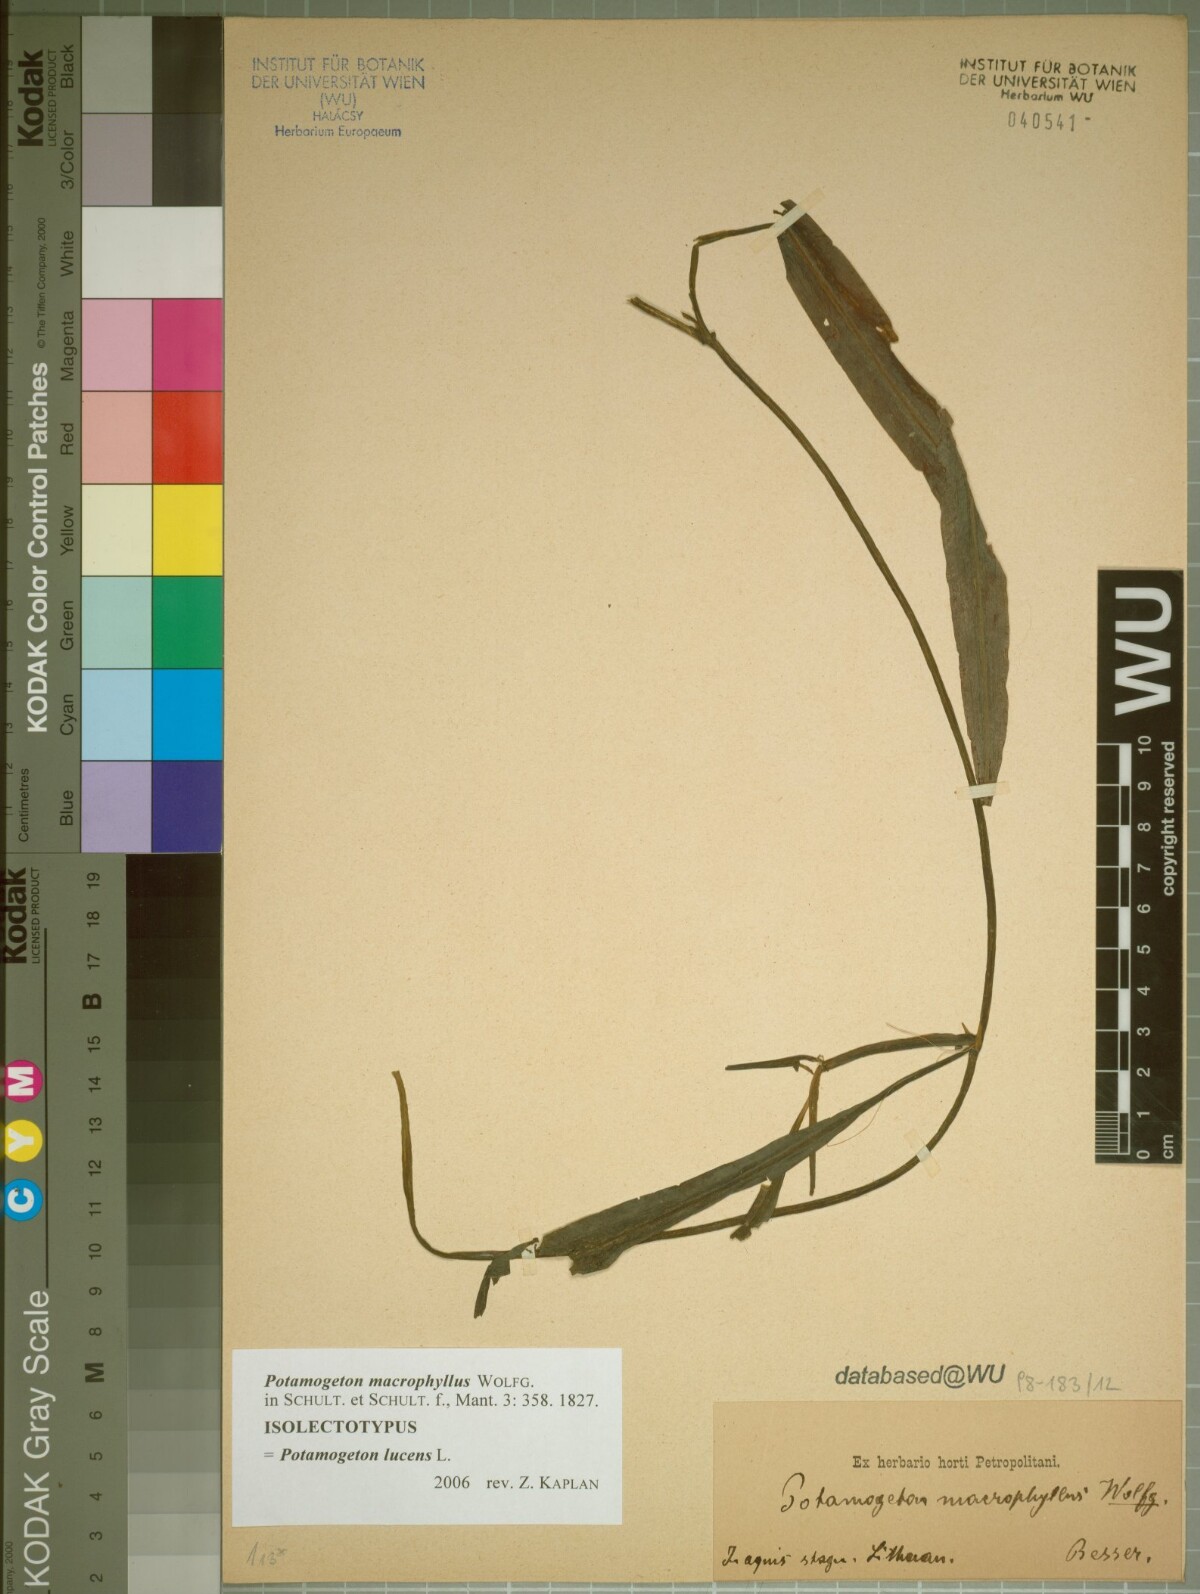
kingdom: Plantae
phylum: Tracheophyta
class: Liliopsida
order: Alismatales
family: Potamogetonaceae
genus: Potamogeton
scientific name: Potamogeton lucens
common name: Shining pondweed
